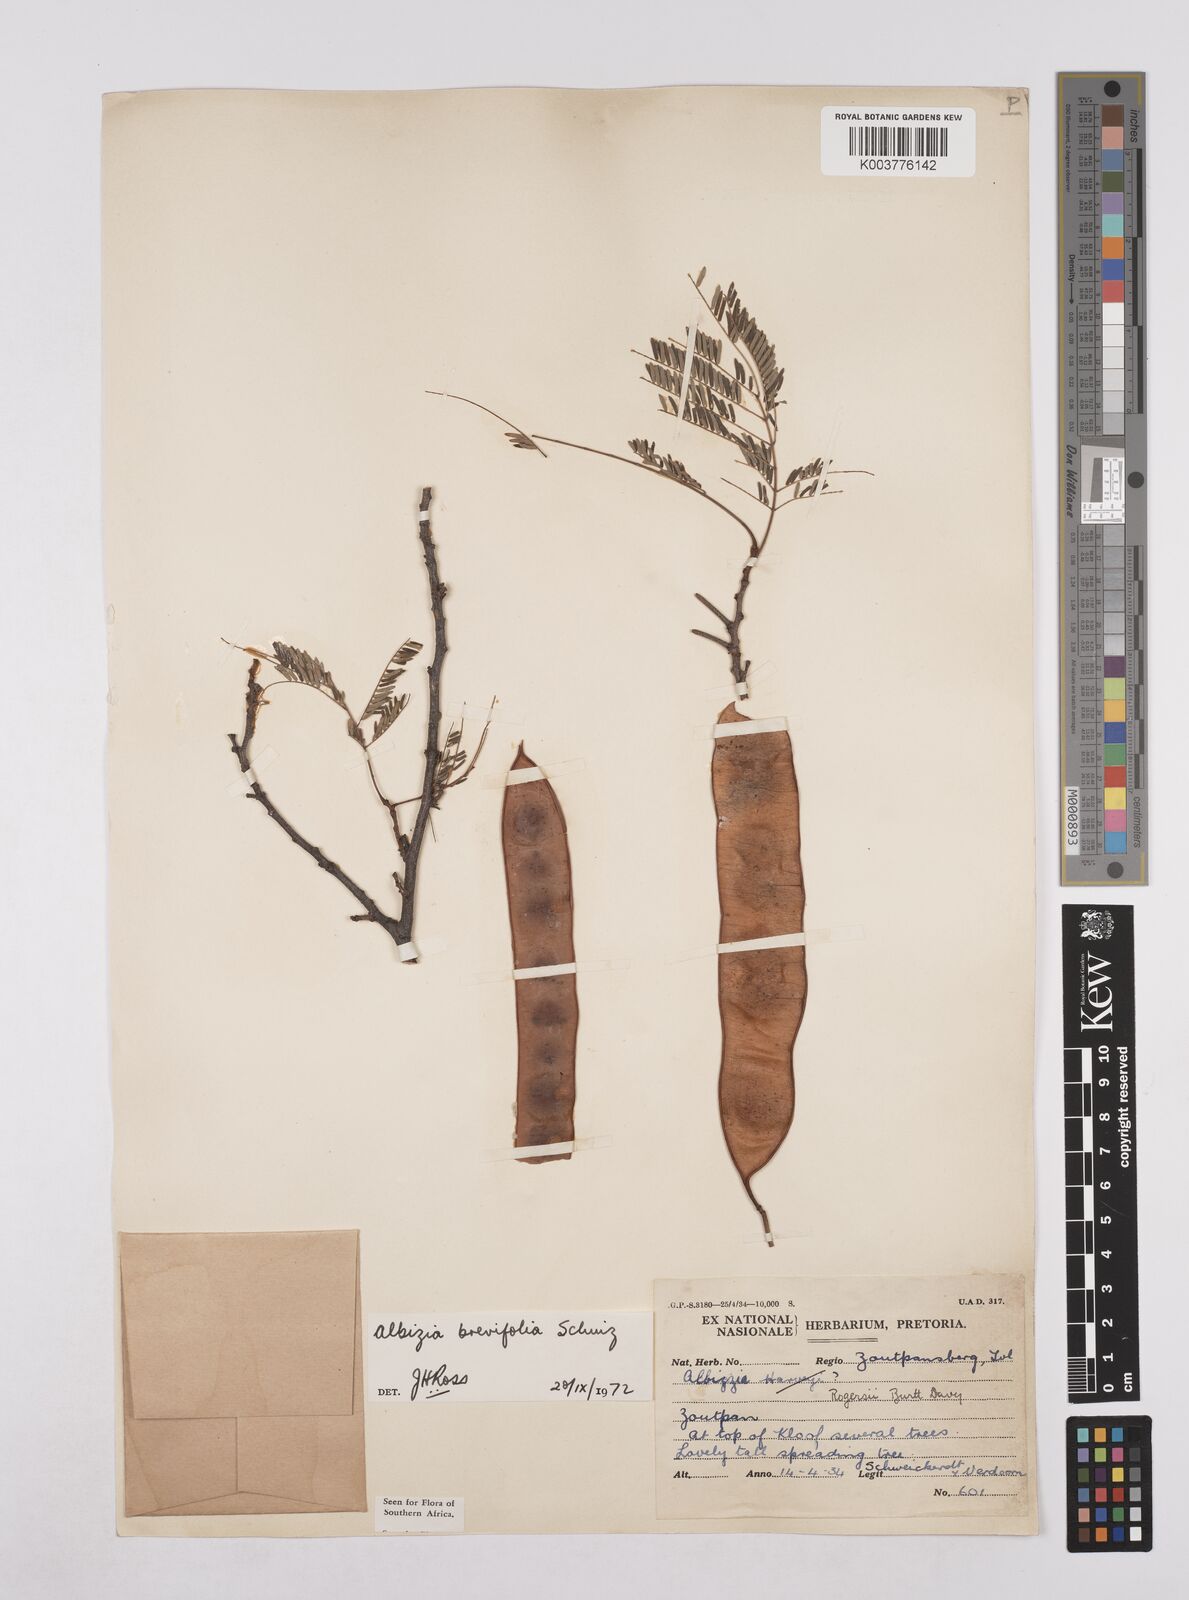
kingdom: Plantae
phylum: Tracheophyta
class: Magnoliopsida
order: Fabales
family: Fabaceae
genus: Albizia
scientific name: Albizia brevifolia
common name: Rock false-thorn
